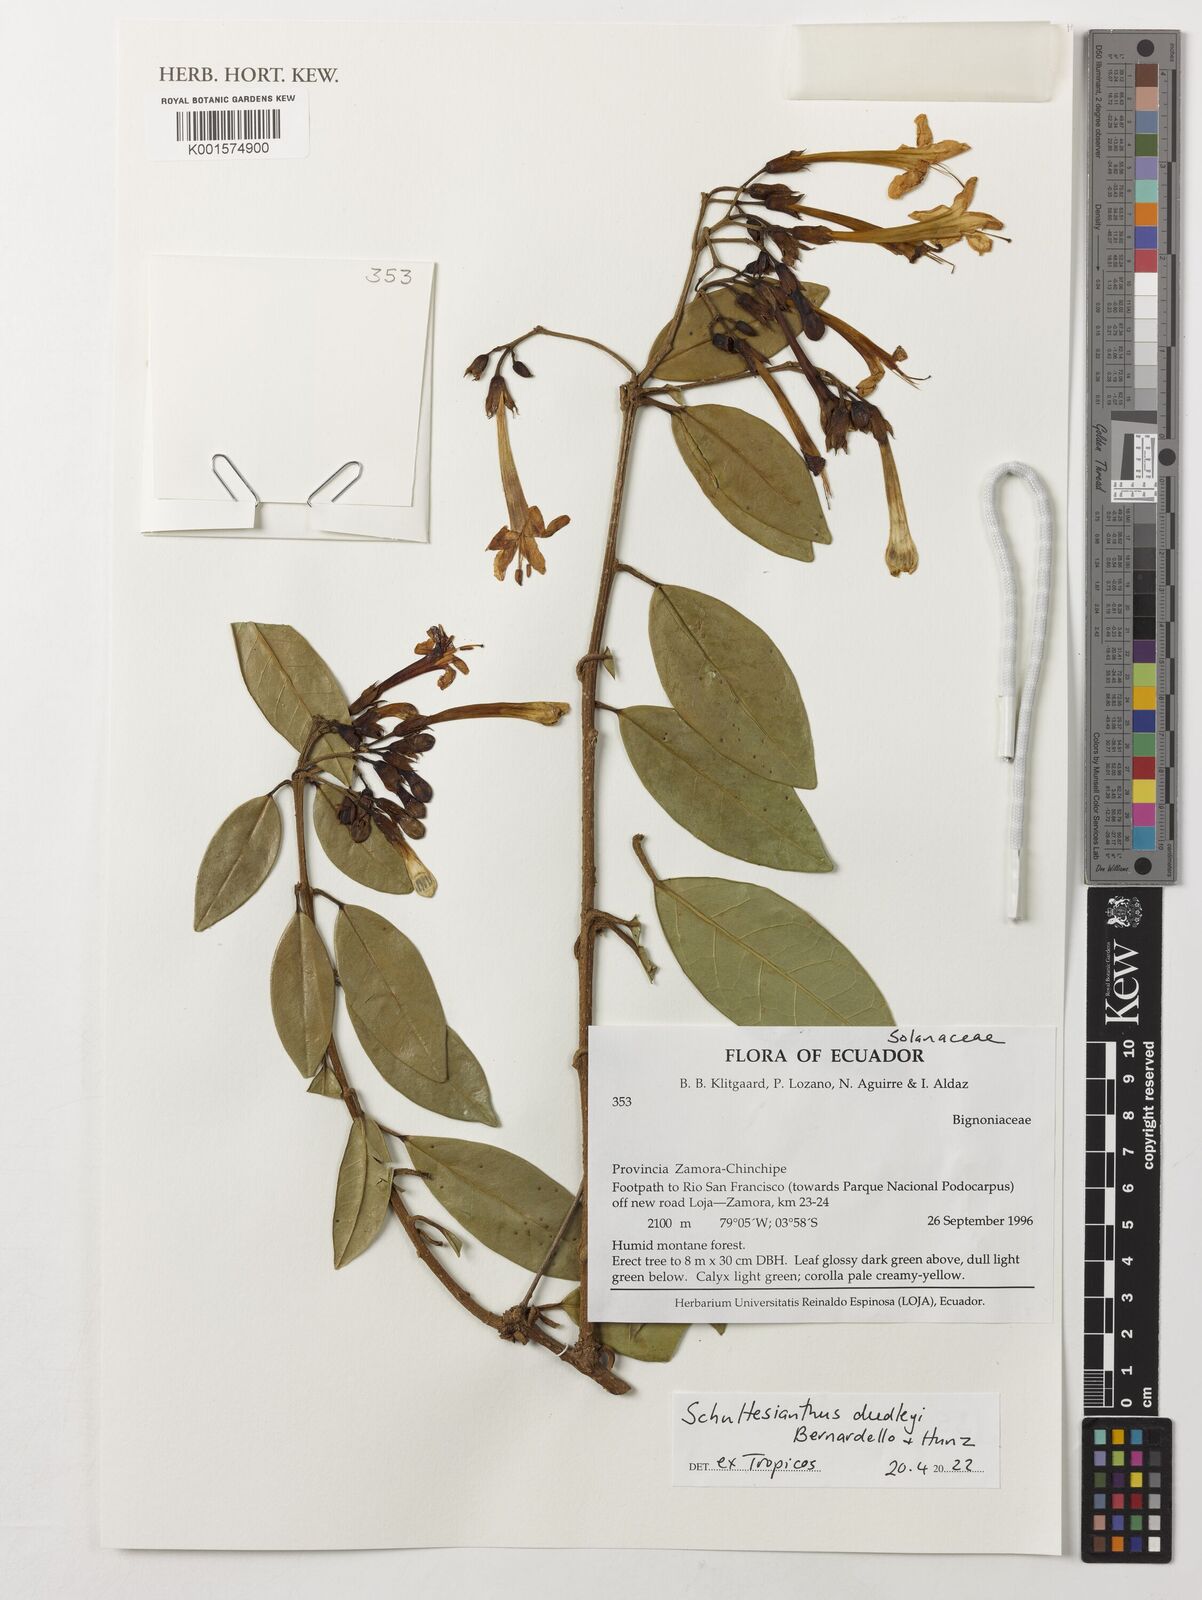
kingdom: Plantae
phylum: Tracheophyta
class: Magnoliopsida
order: Solanales
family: Solanaceae
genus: Schultesianthus
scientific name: Schultesianthus dudleyi
